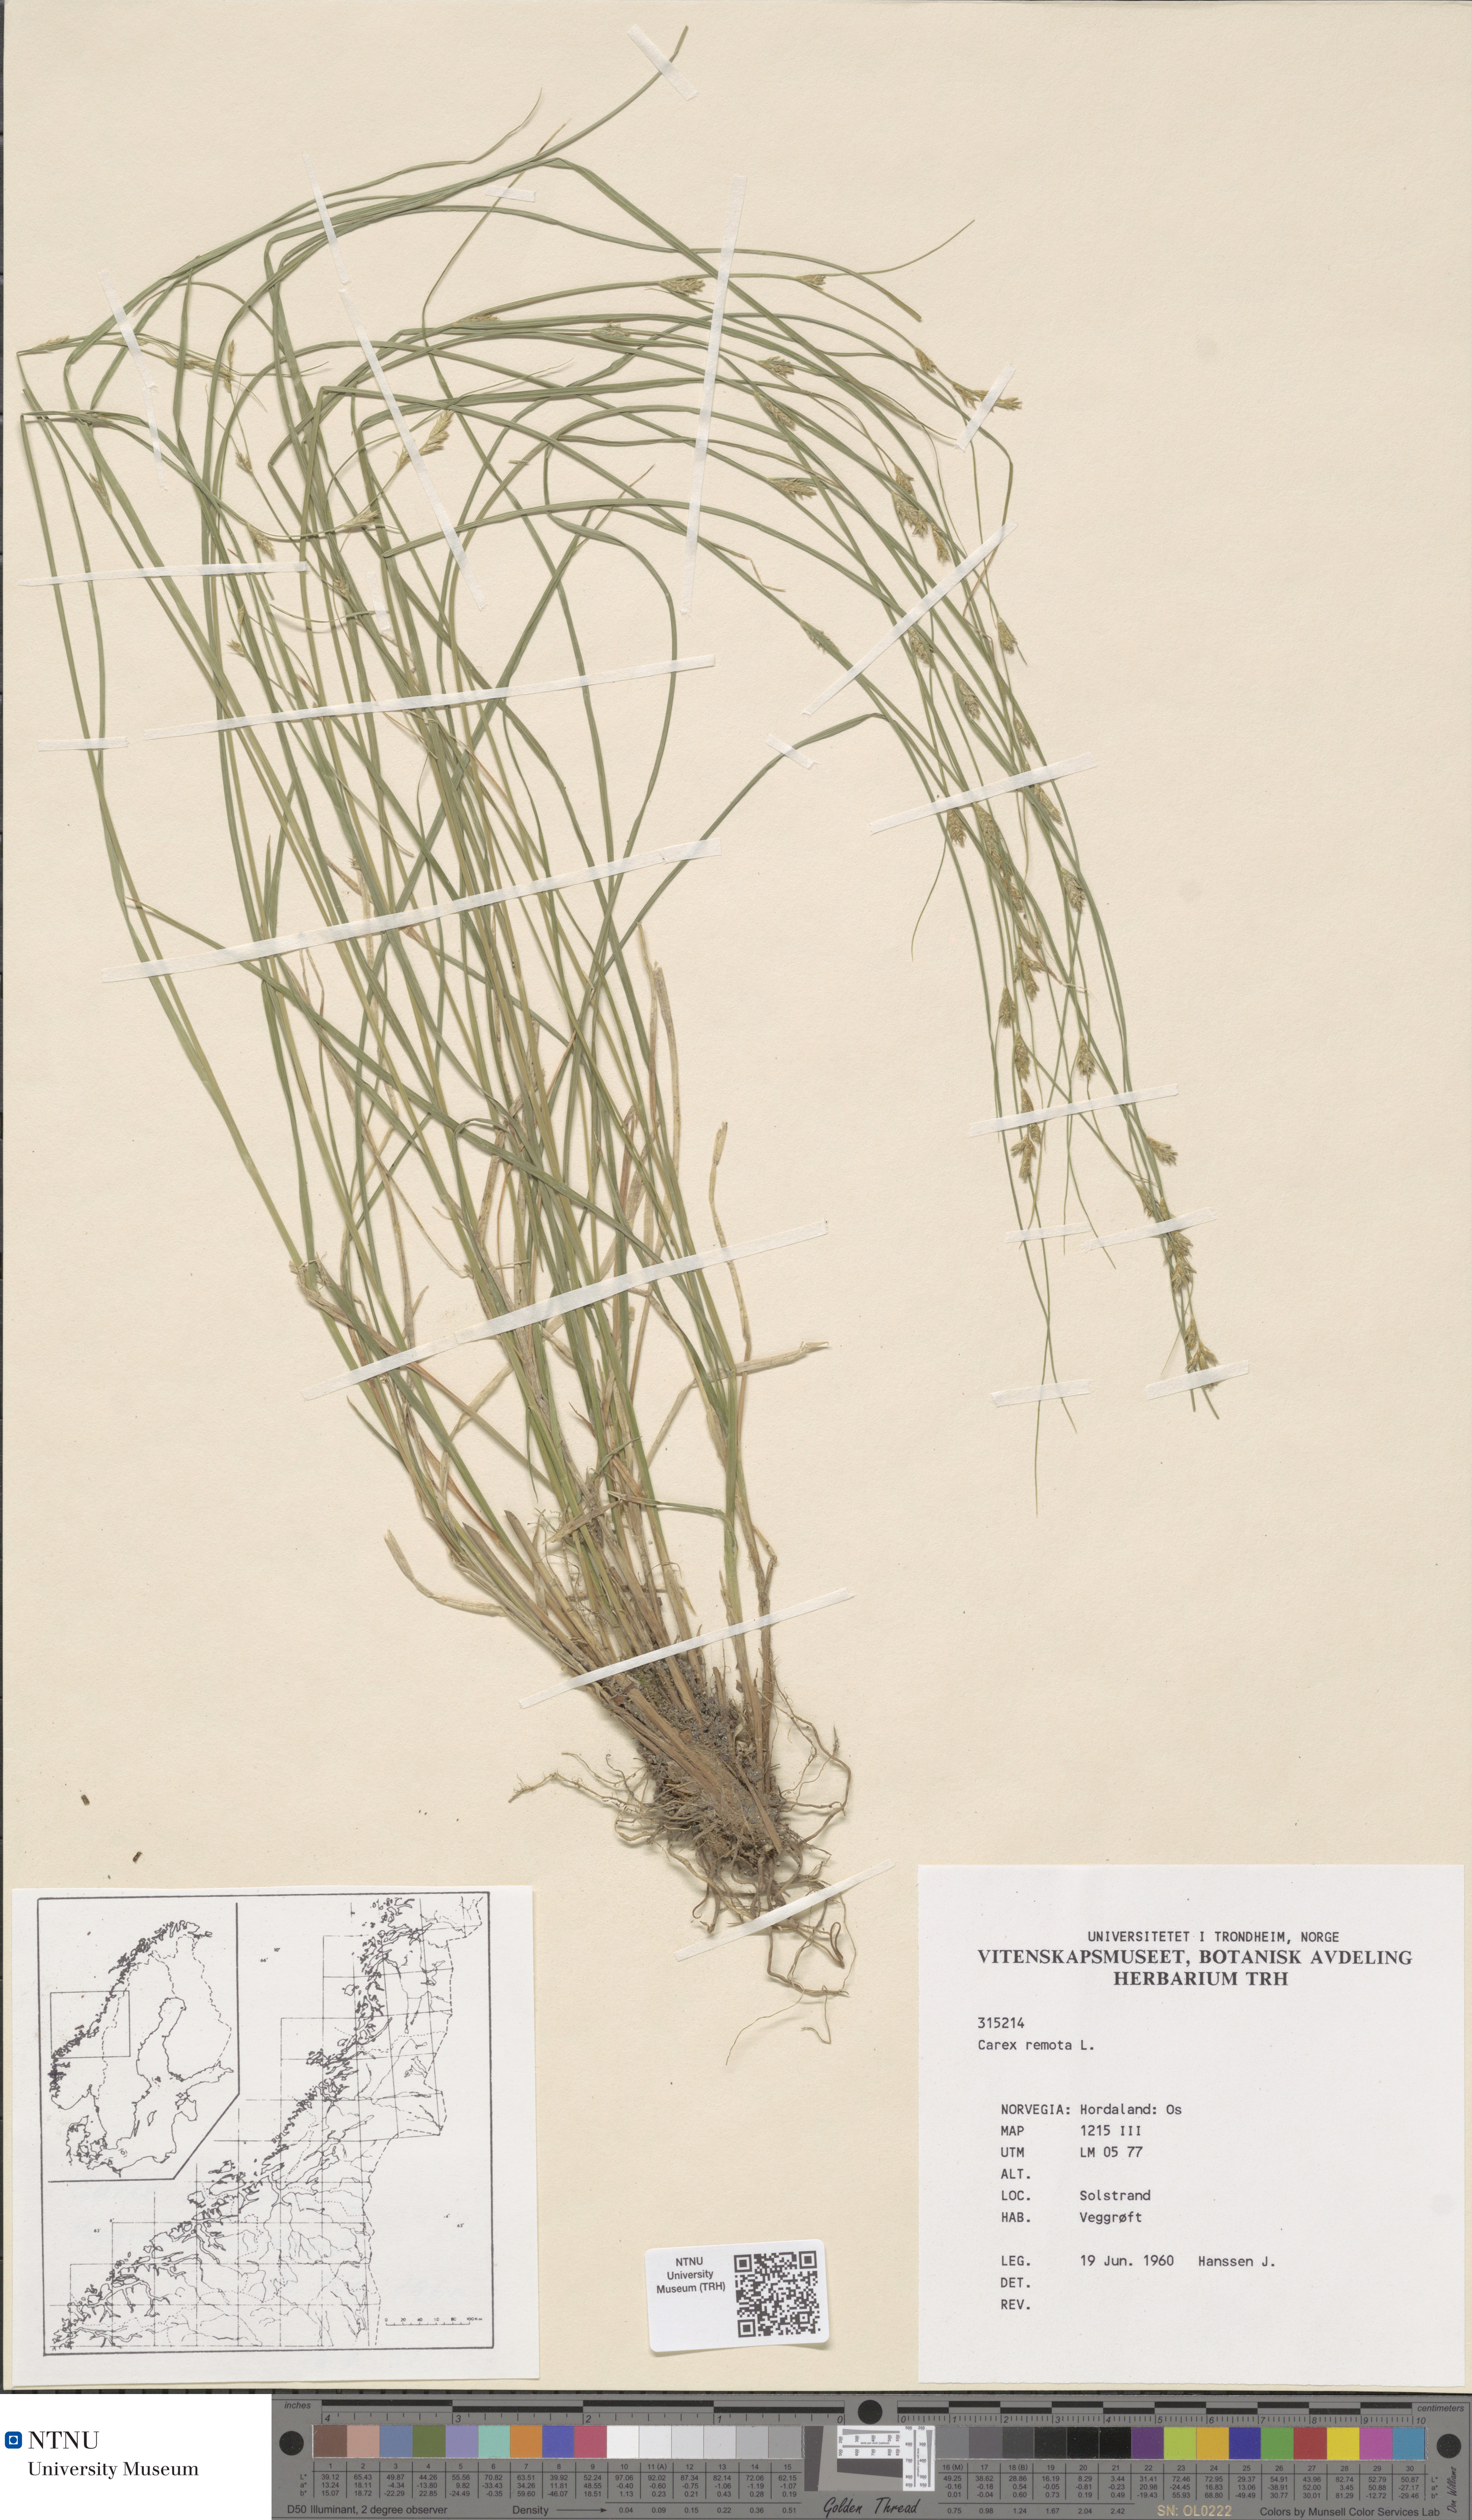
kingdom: Plantae
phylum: Tracheophyta
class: Liliopsida
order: Poales
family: Cyperaceae
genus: Carex
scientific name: Carex remota
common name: Remote sedge
